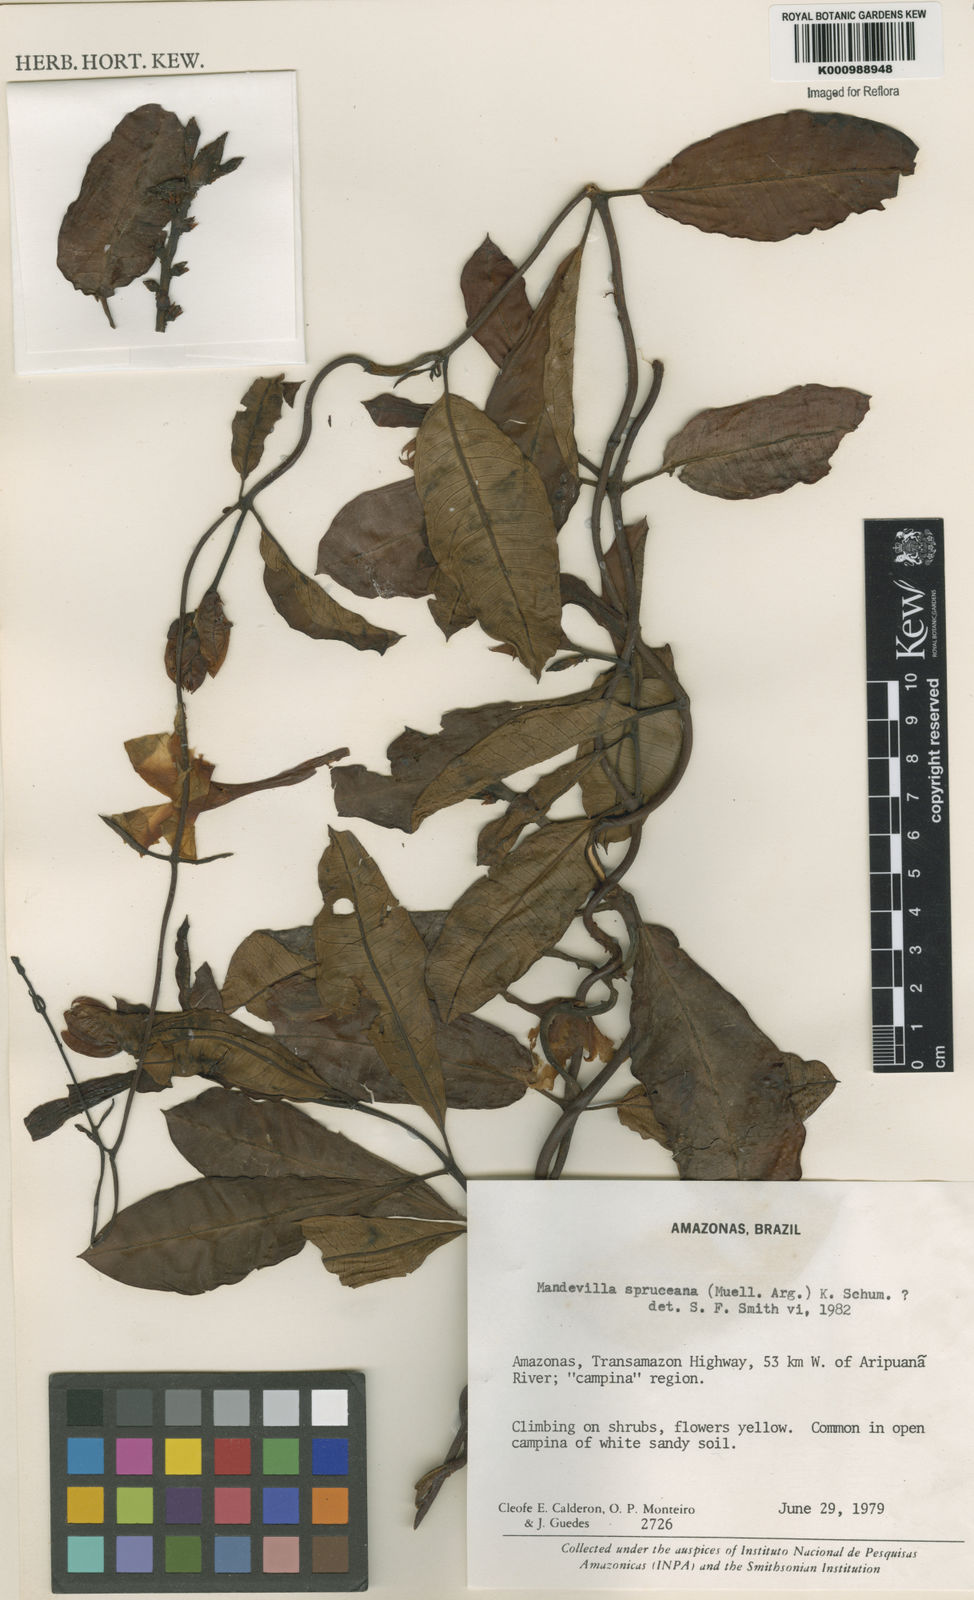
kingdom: Plantae
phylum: Tracheophyta
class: Magnoliopsida
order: Gentianales
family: Apocynaceae
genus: Mandevilla
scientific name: Mandevilla
